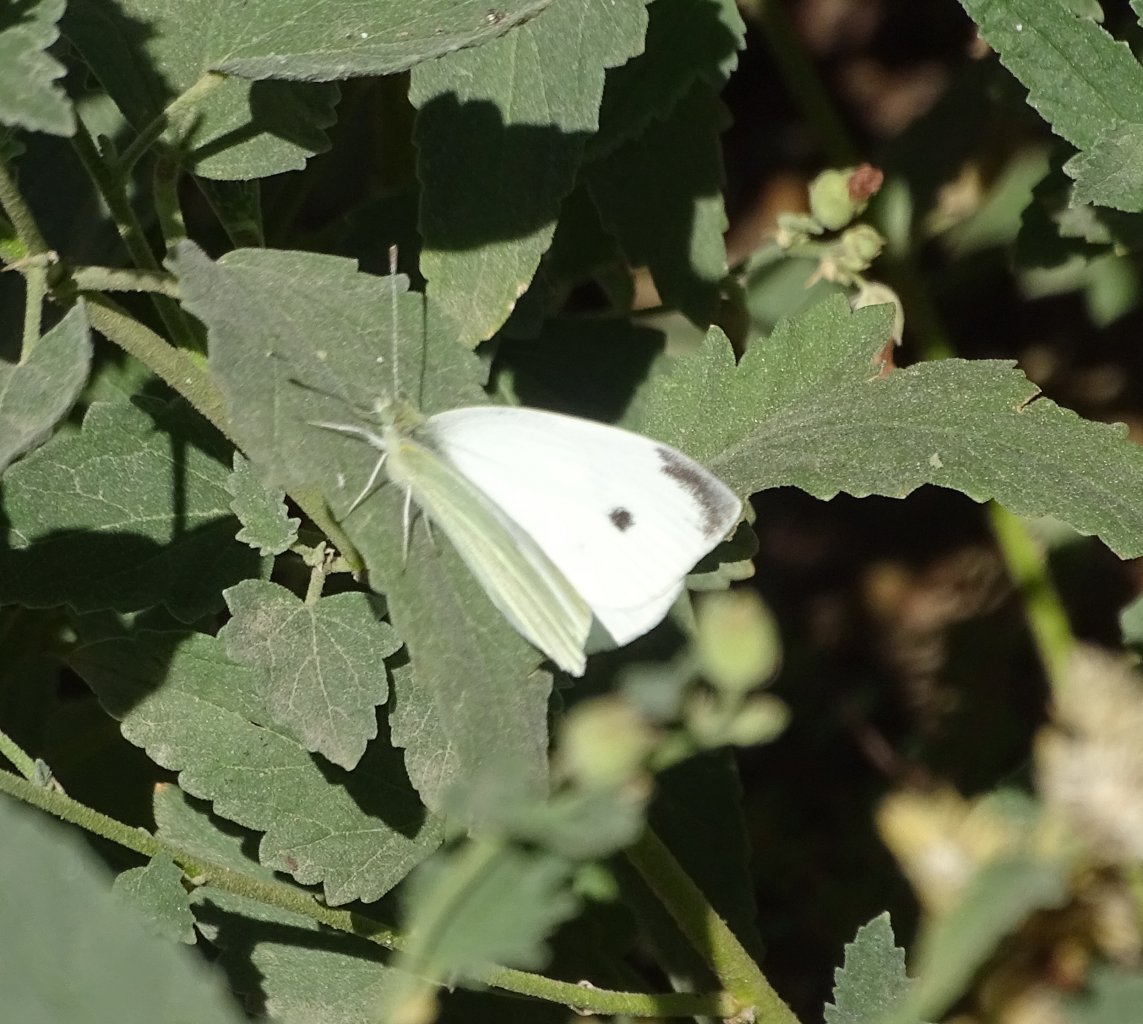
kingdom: Animalia
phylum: Arthropoda
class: Insecta
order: Lepidoptera
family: Pieridae
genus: Pieris
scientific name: Pieris rapae
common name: Cabbage White
